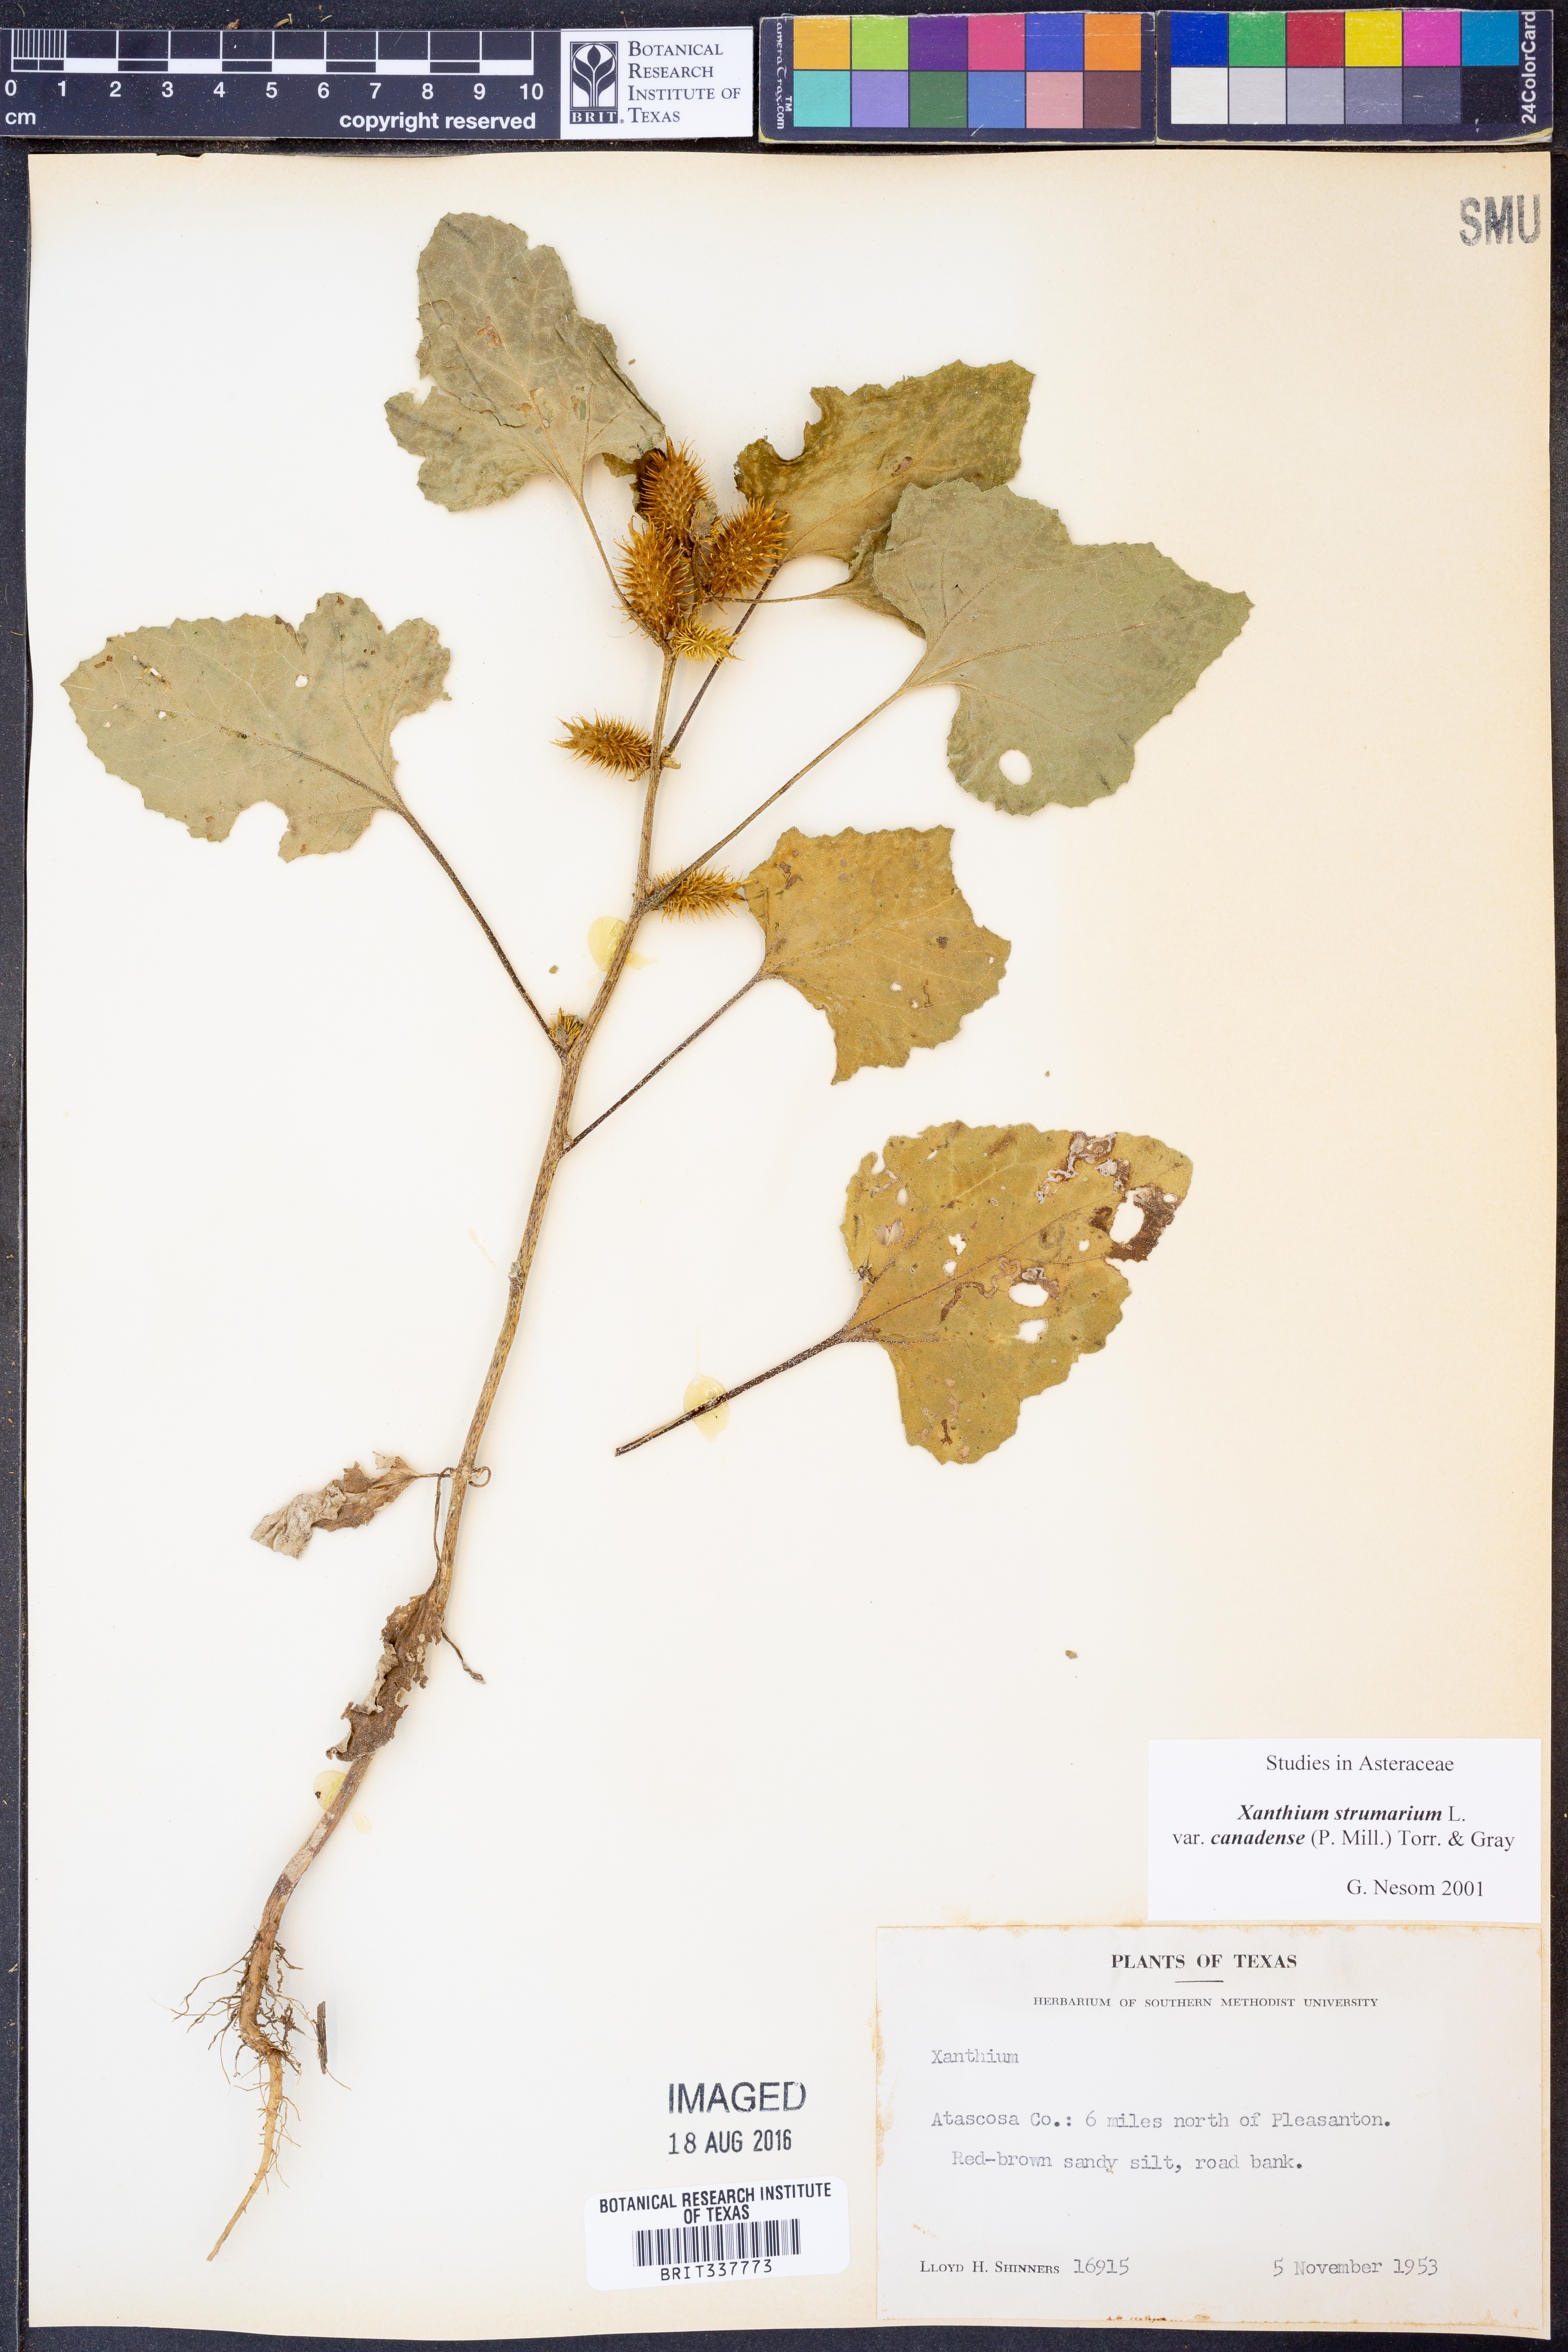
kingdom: Plantae
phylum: Tracheophyta
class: Magnoliopsida
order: Asterales
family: Asteraceae
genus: Xanthium
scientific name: Xanthium orientale
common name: Californian burr
